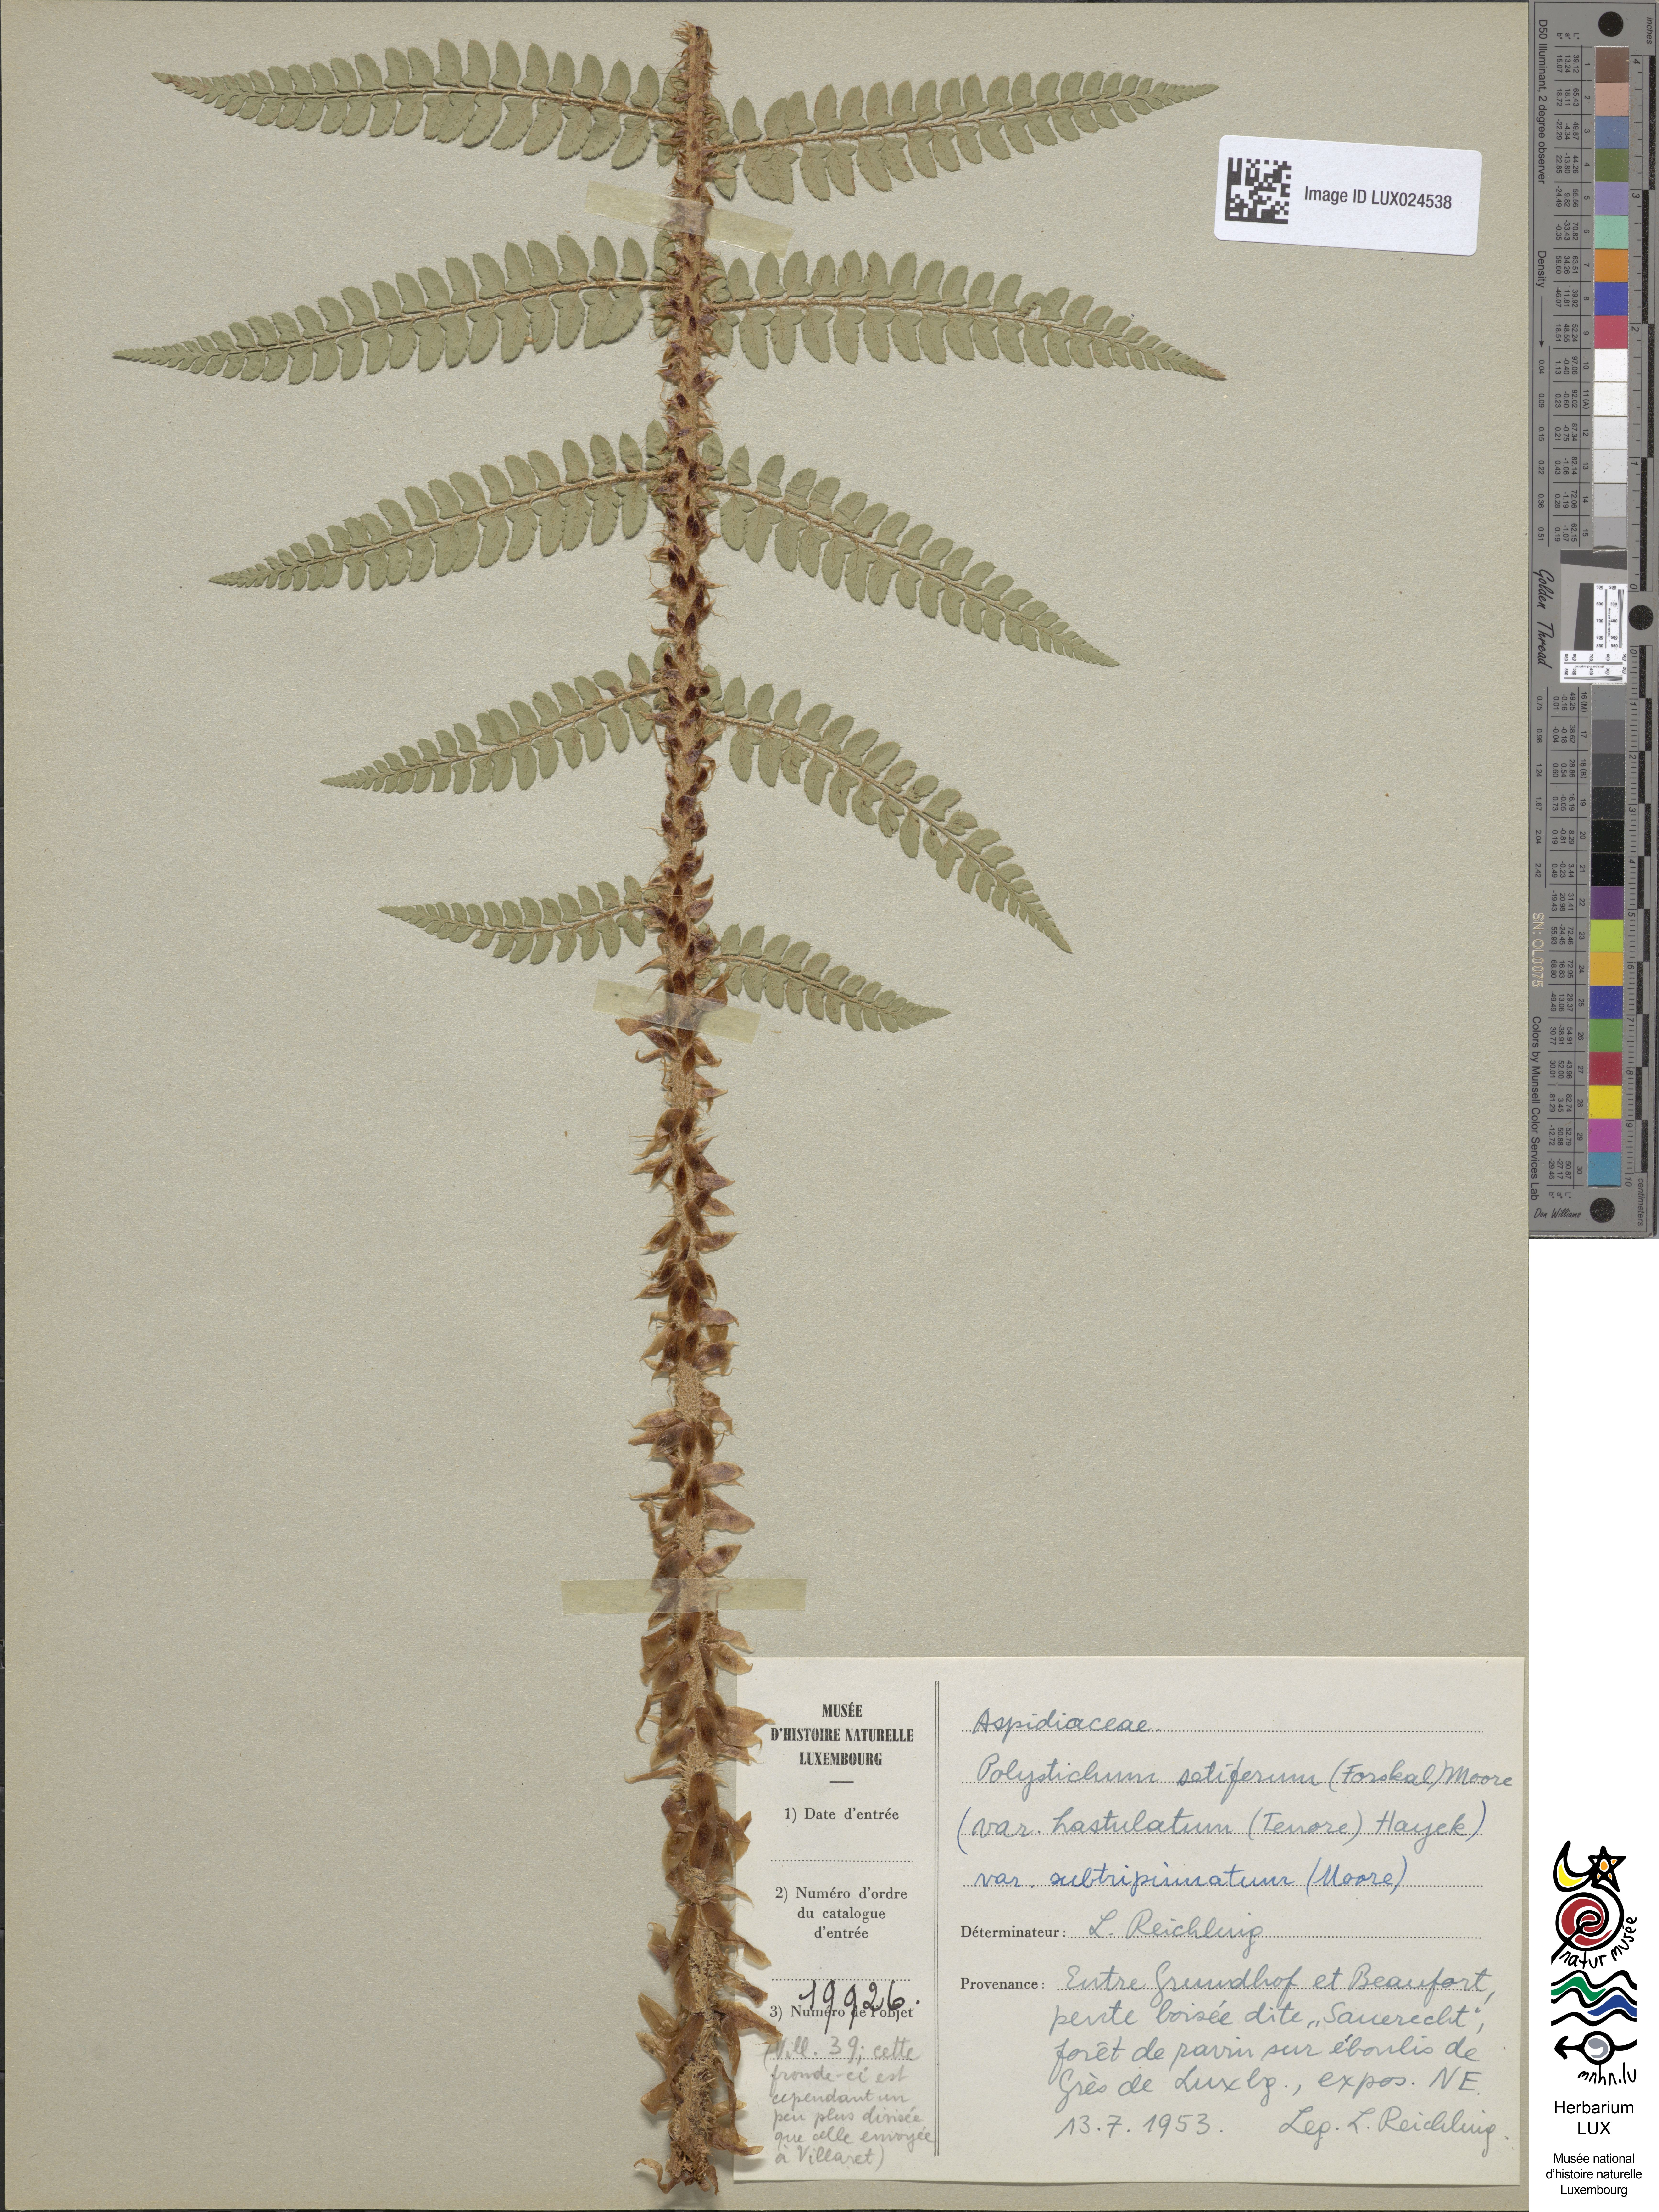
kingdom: Plantae
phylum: Tracheophyta
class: Polypodiopsida
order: Polypodiales
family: Dryopteridaceae
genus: Polystichum
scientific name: Polystichum setiferum
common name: Soft shield-fern
